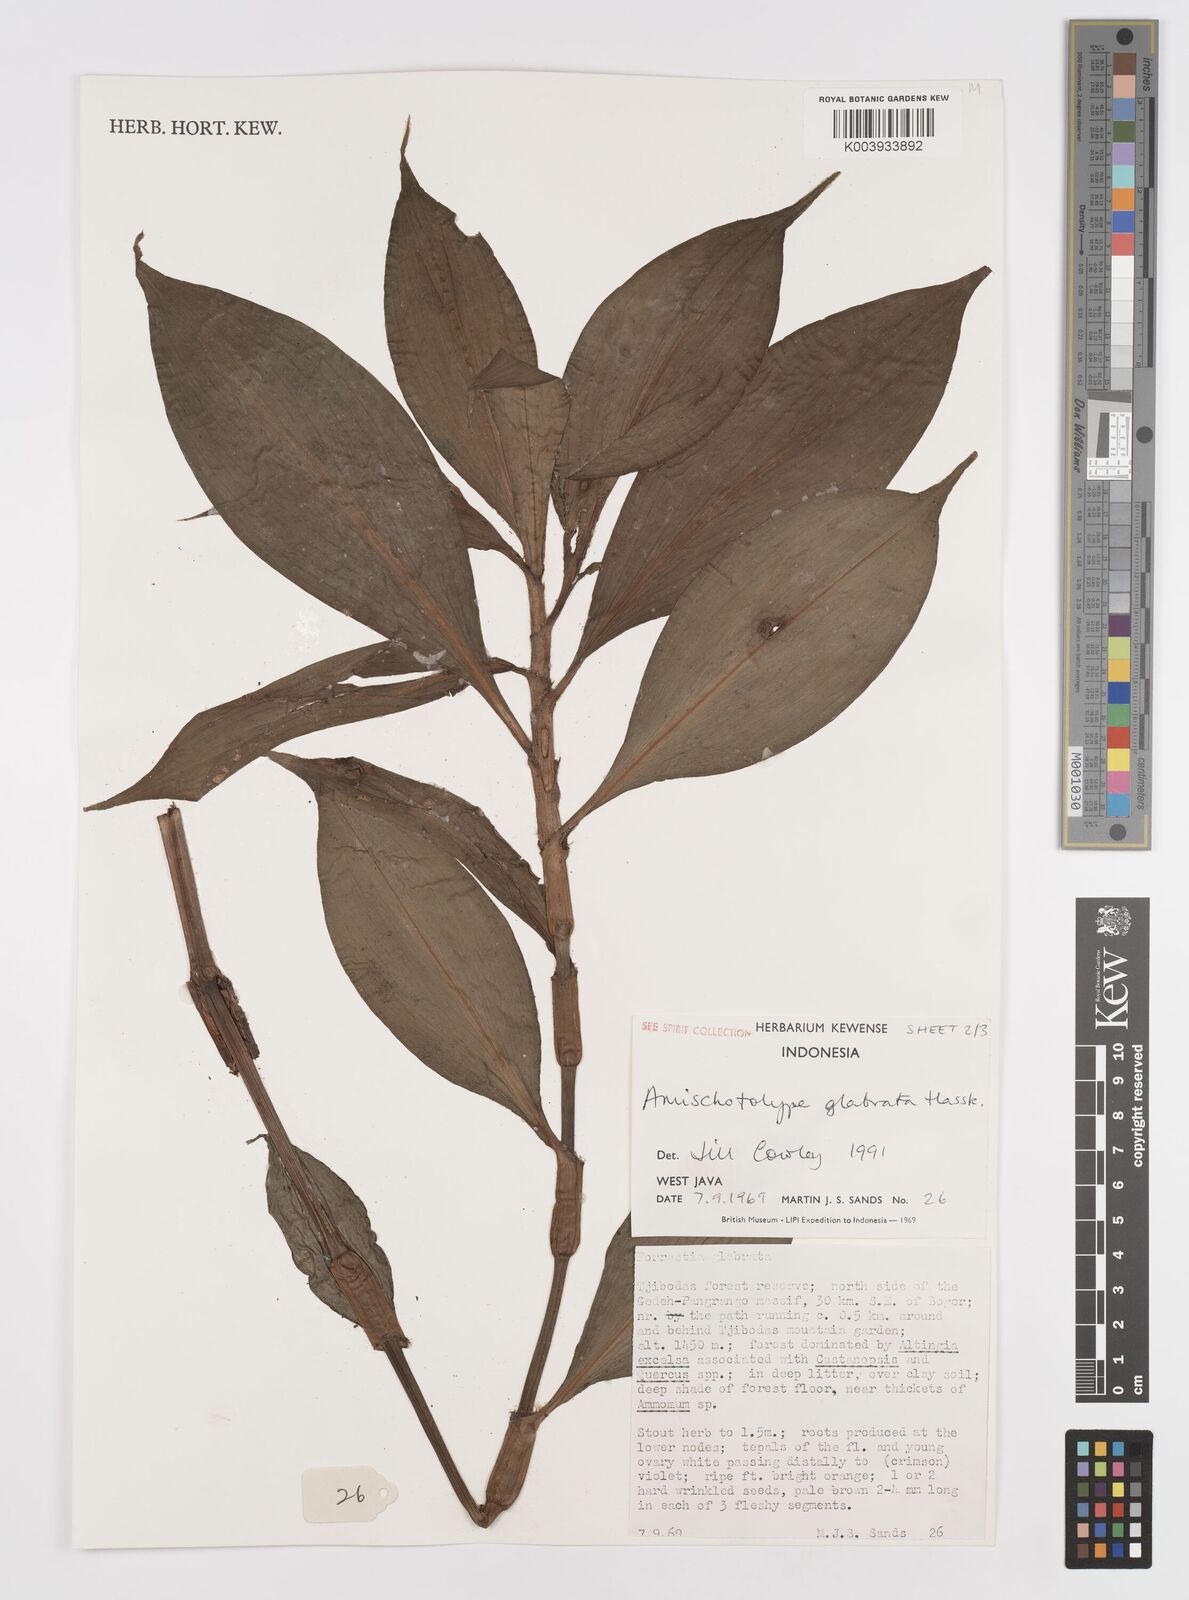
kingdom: Plantae
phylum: Tracheophyta
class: Liliopsida
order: Commelinales
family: Commelinaceae
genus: Amischotolype
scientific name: Amischotolype glabrata
